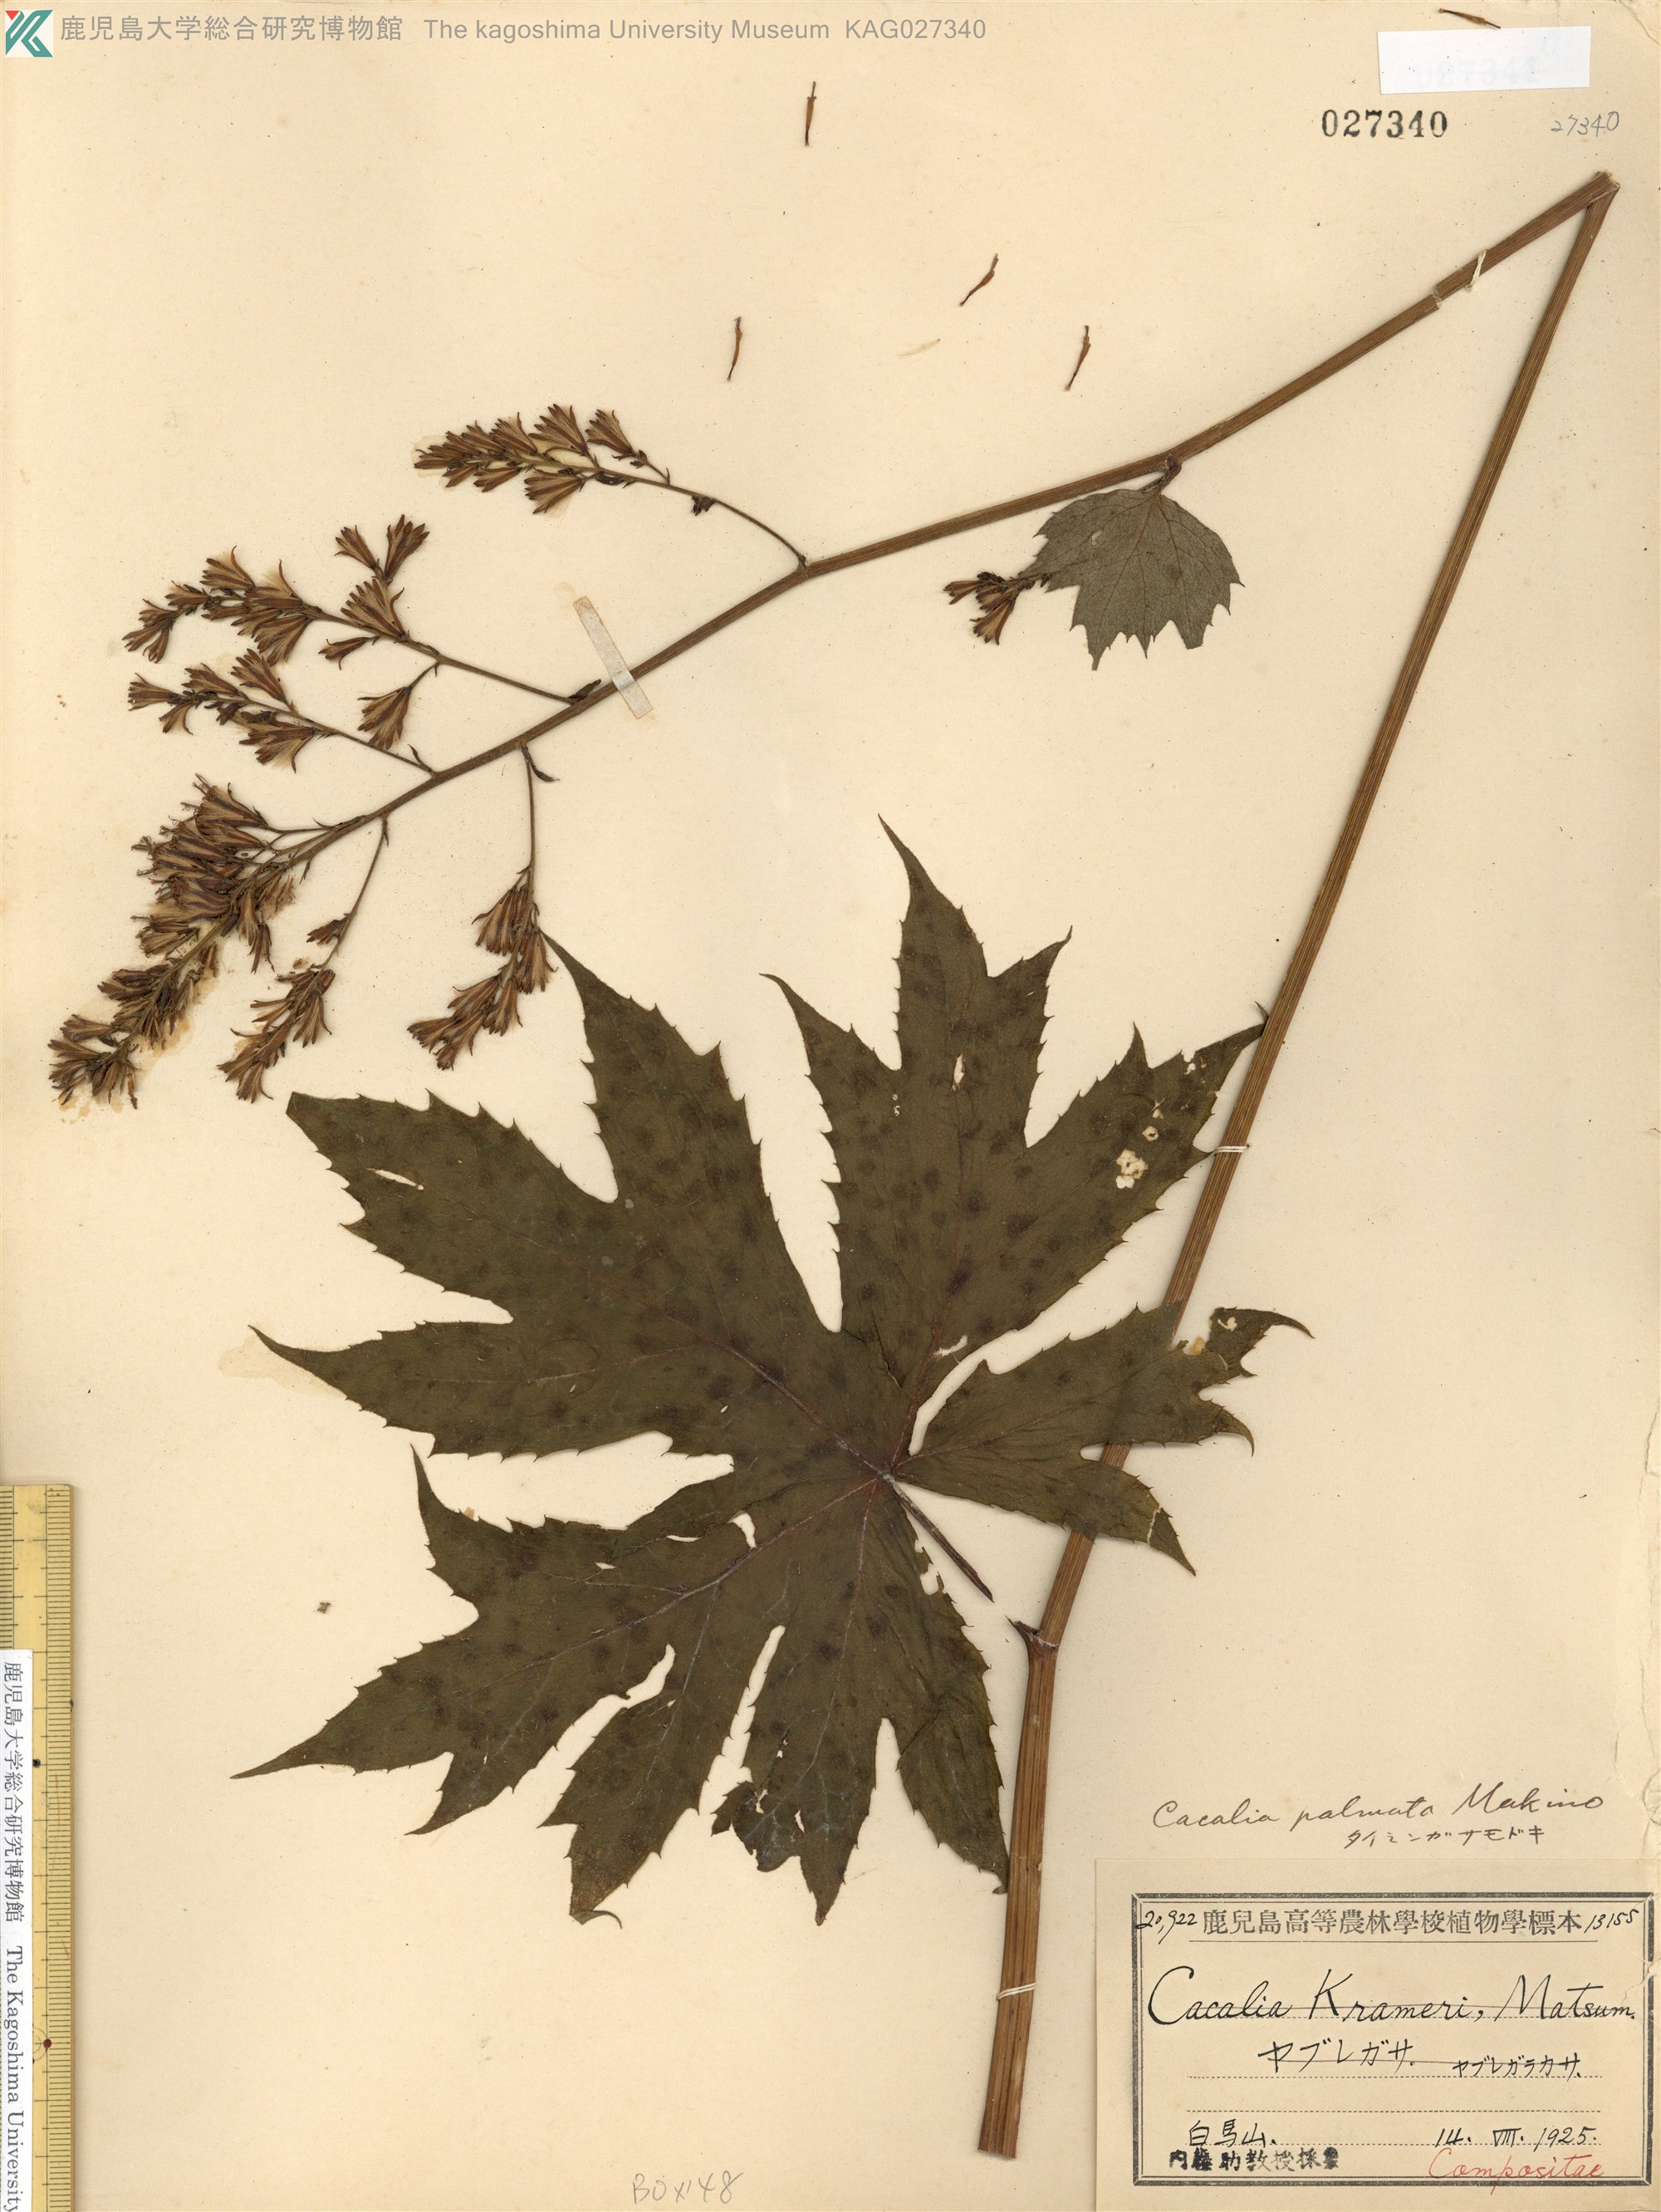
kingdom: Plantae
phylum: Tracheophyta
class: Magnoliopsida
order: Asterales
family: Asteraceae
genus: Taimingasa
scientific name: Taimingasa yatabei
